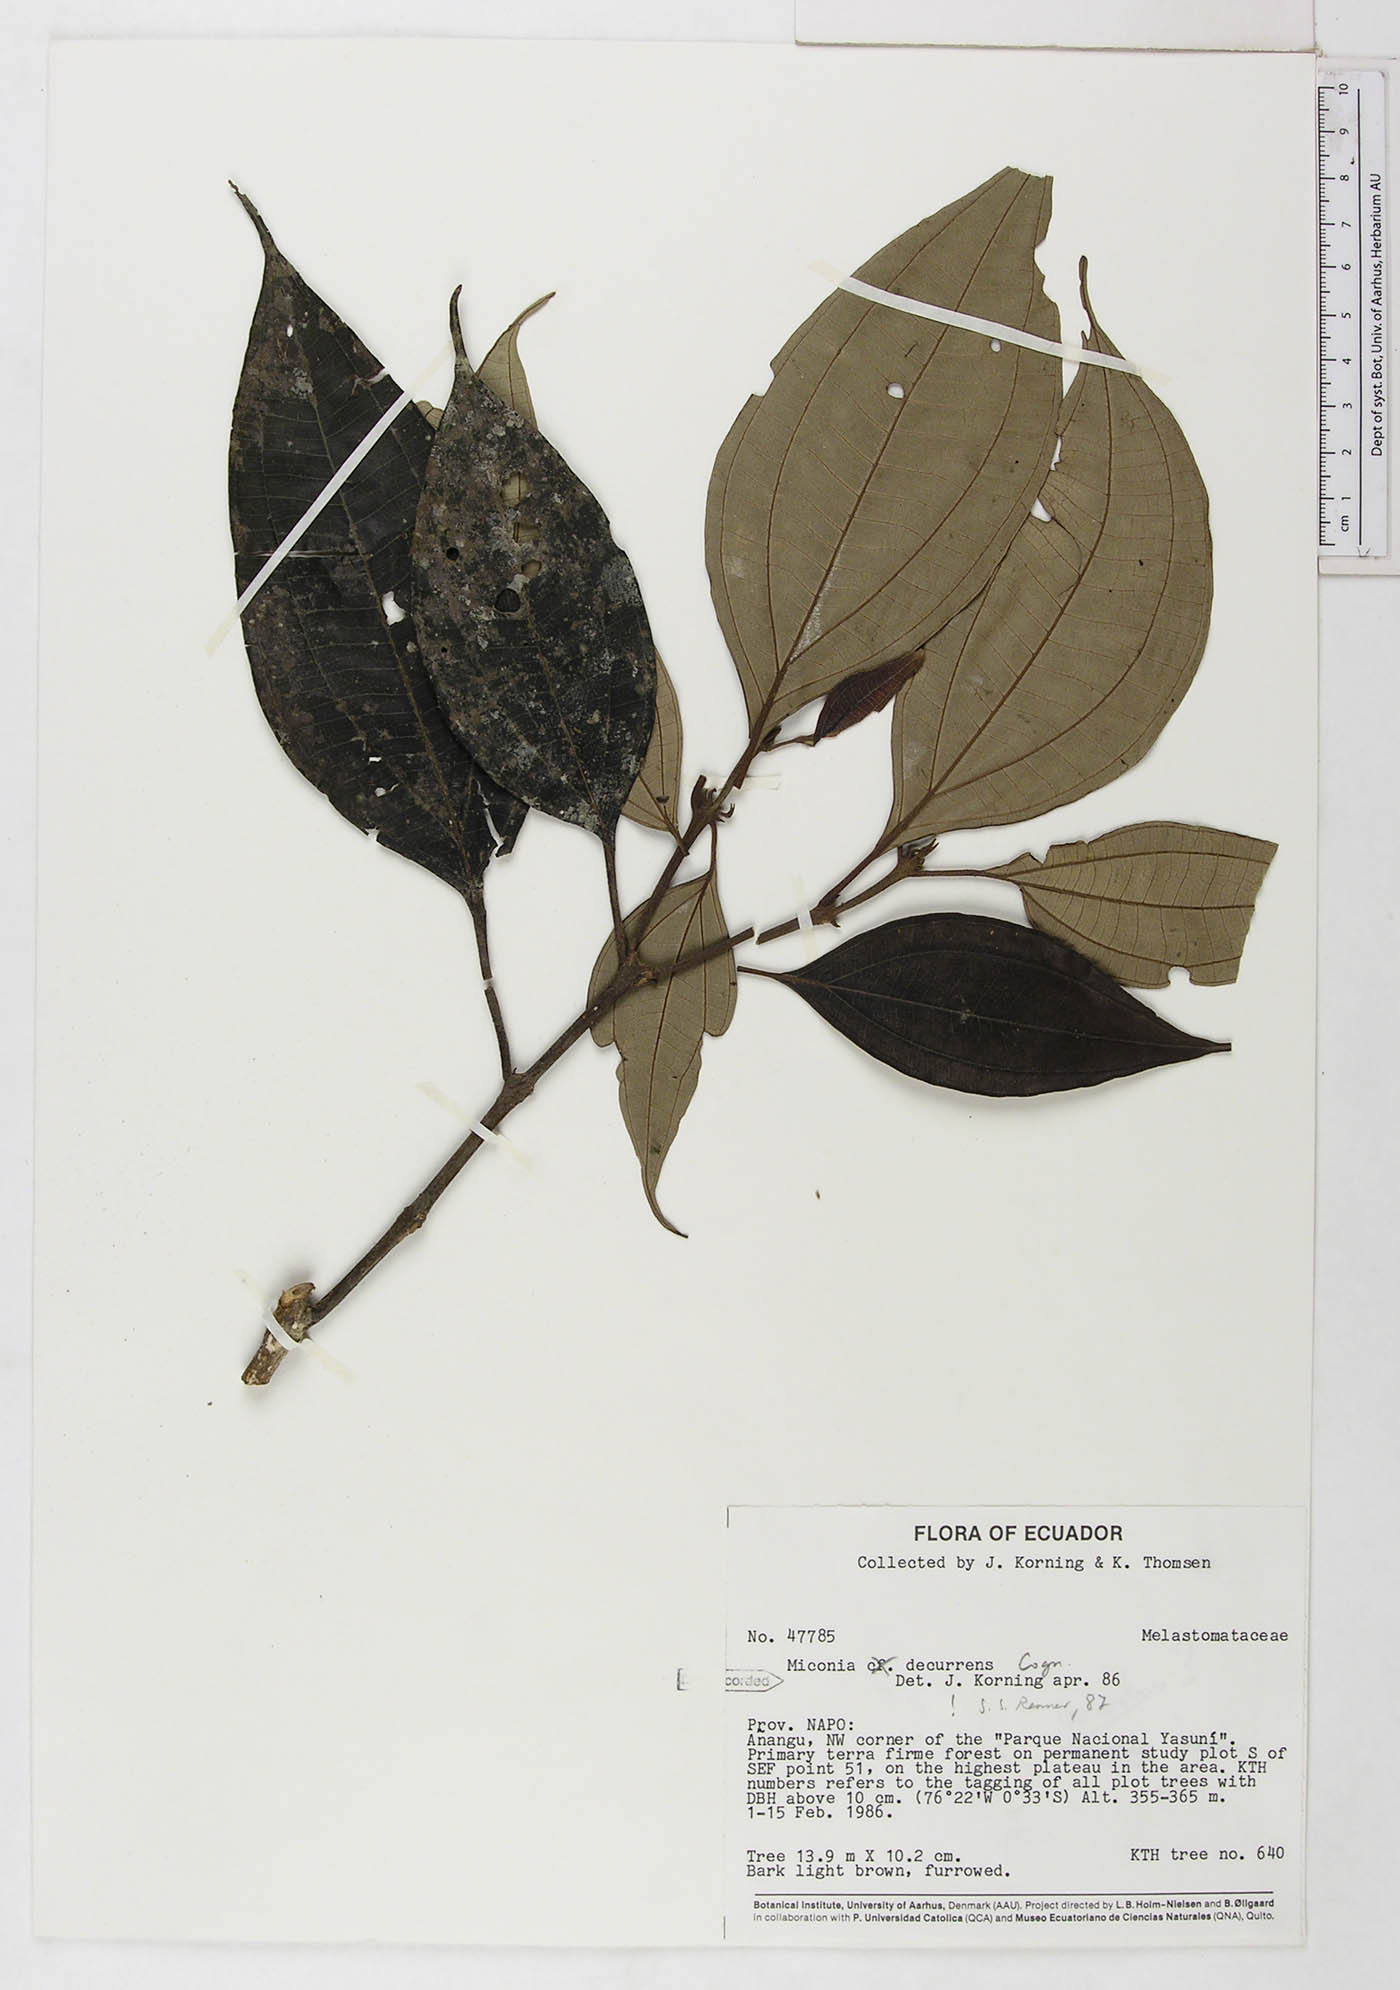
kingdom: Plantae
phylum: Tracheophyta
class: Magnoliopsida
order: Myrtales
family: Melastomataceae
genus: Miconia
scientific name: Miconia decurrens
